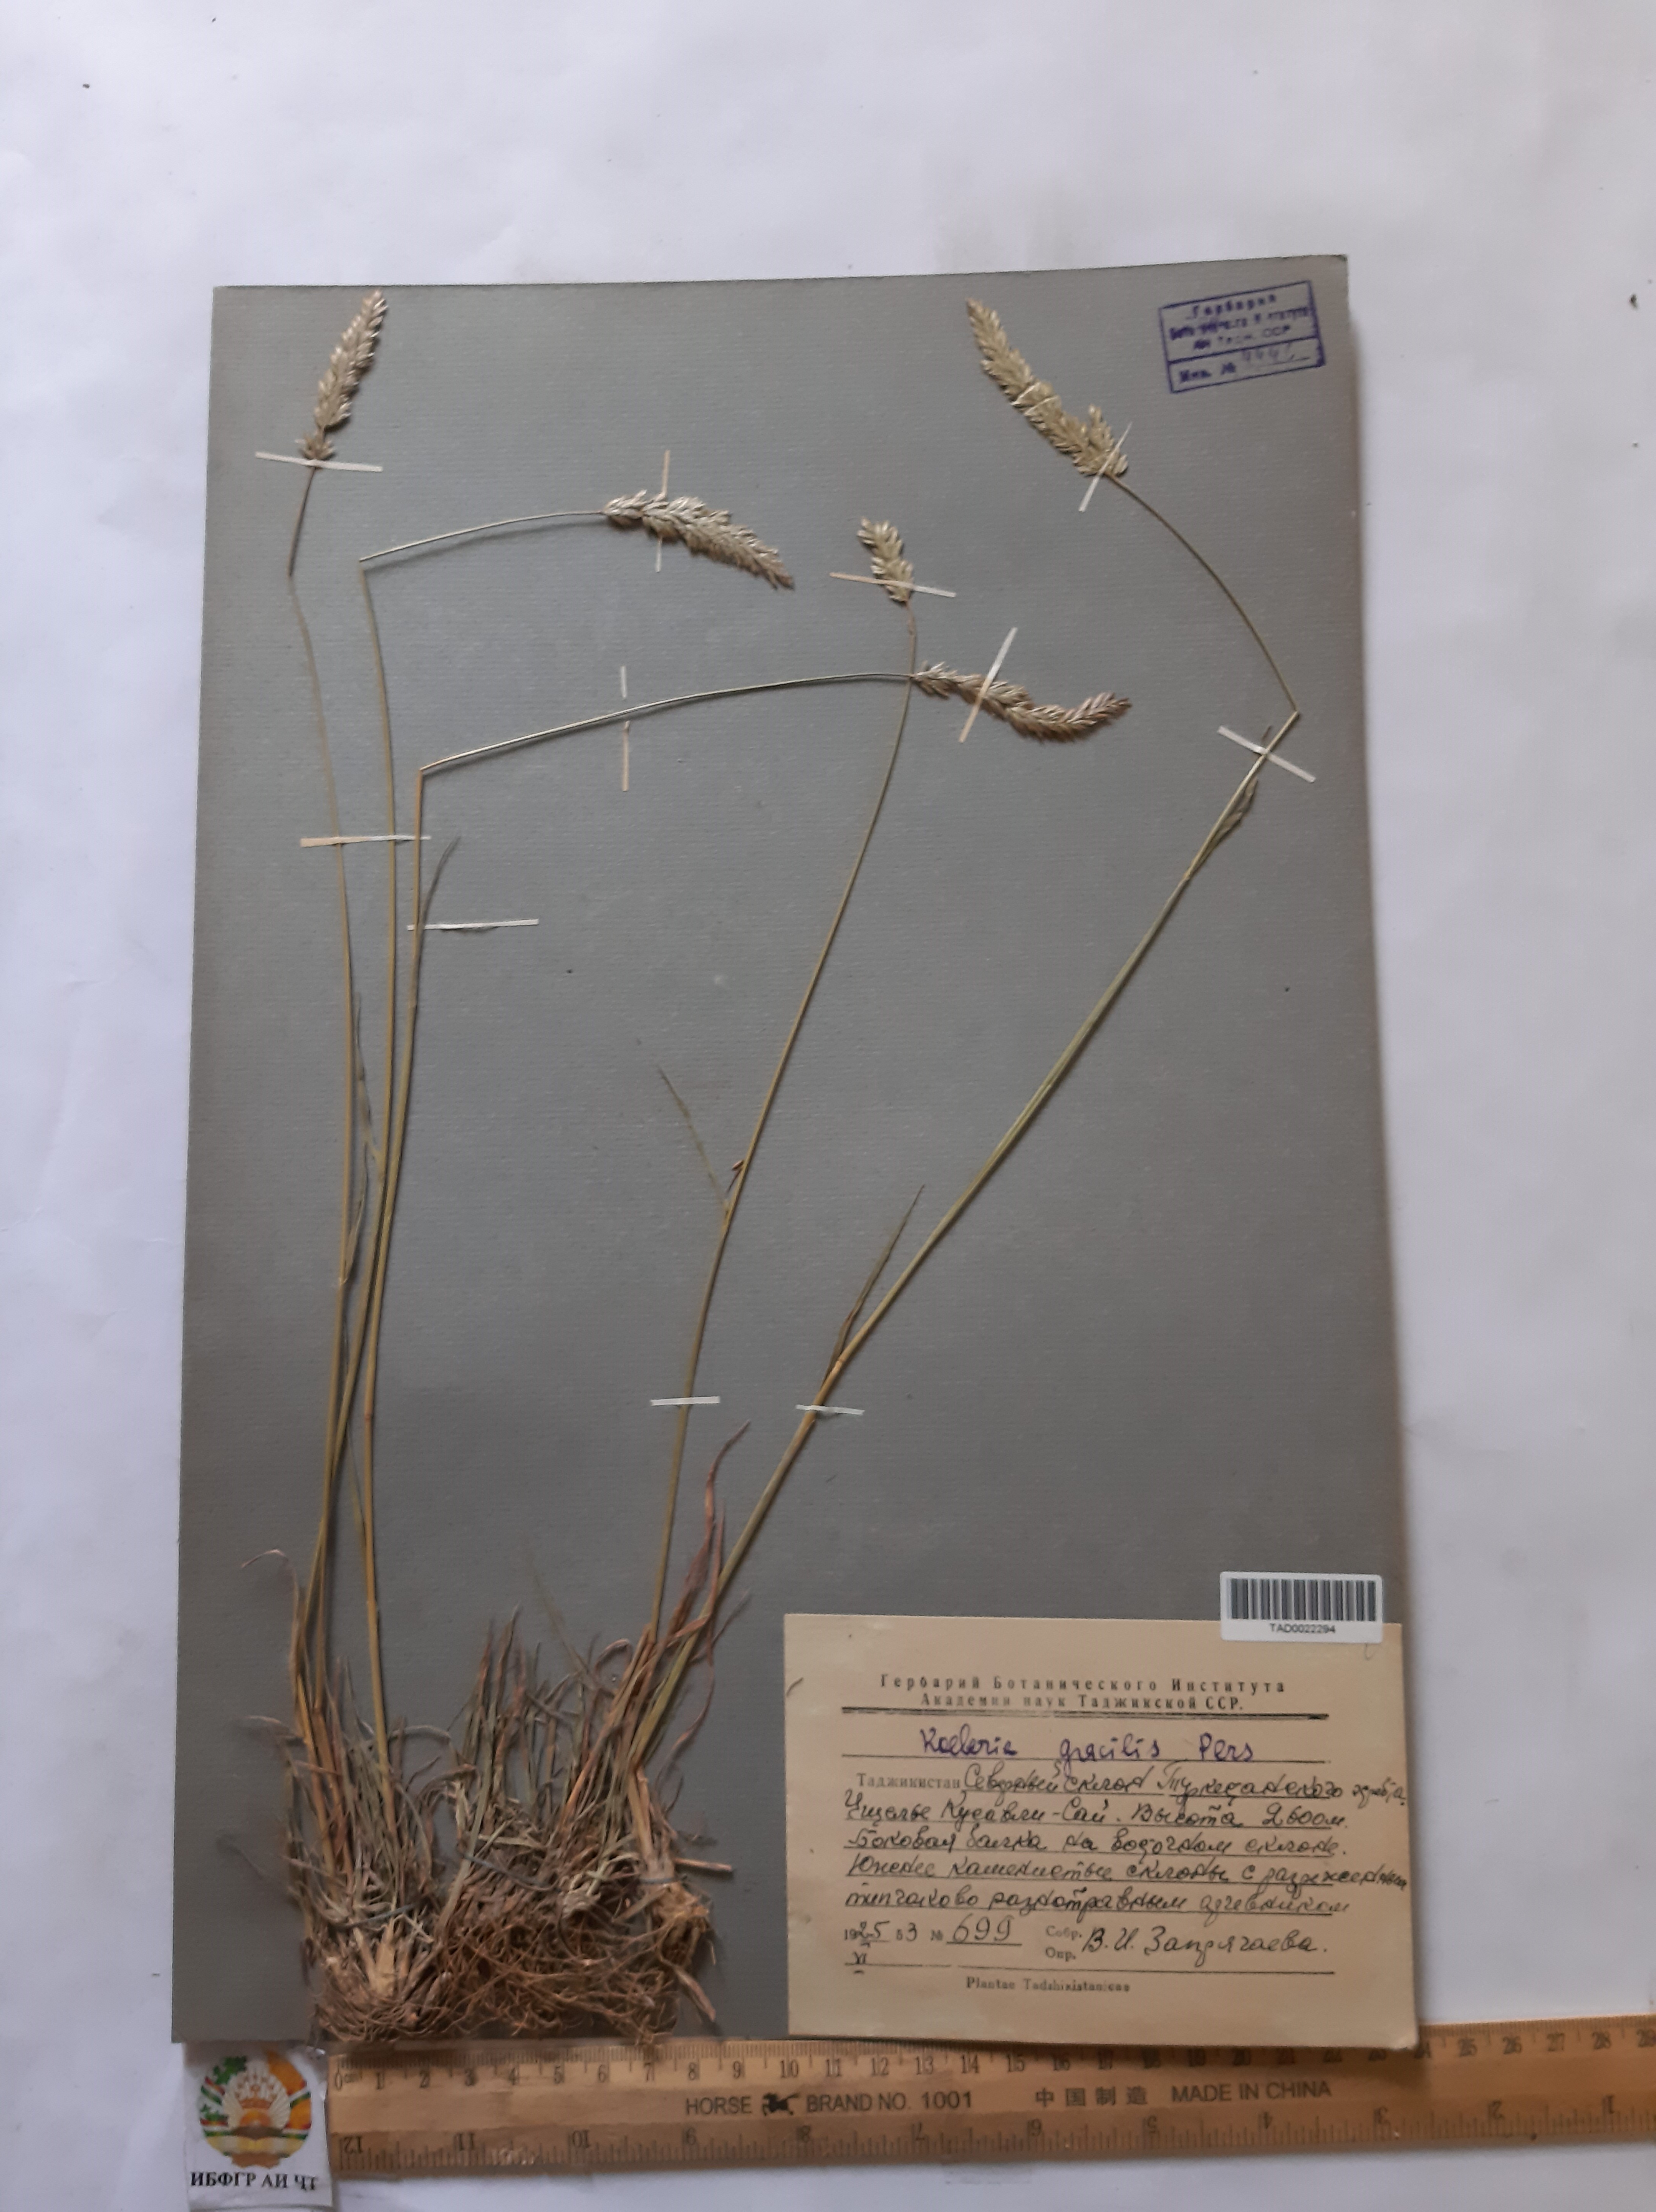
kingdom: Plantae
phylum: Tracheophyta
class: Liliopsida
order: Poales
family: Poaceae
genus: Koeleria
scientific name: Koeleria macrantha
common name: Crested hair-grass
